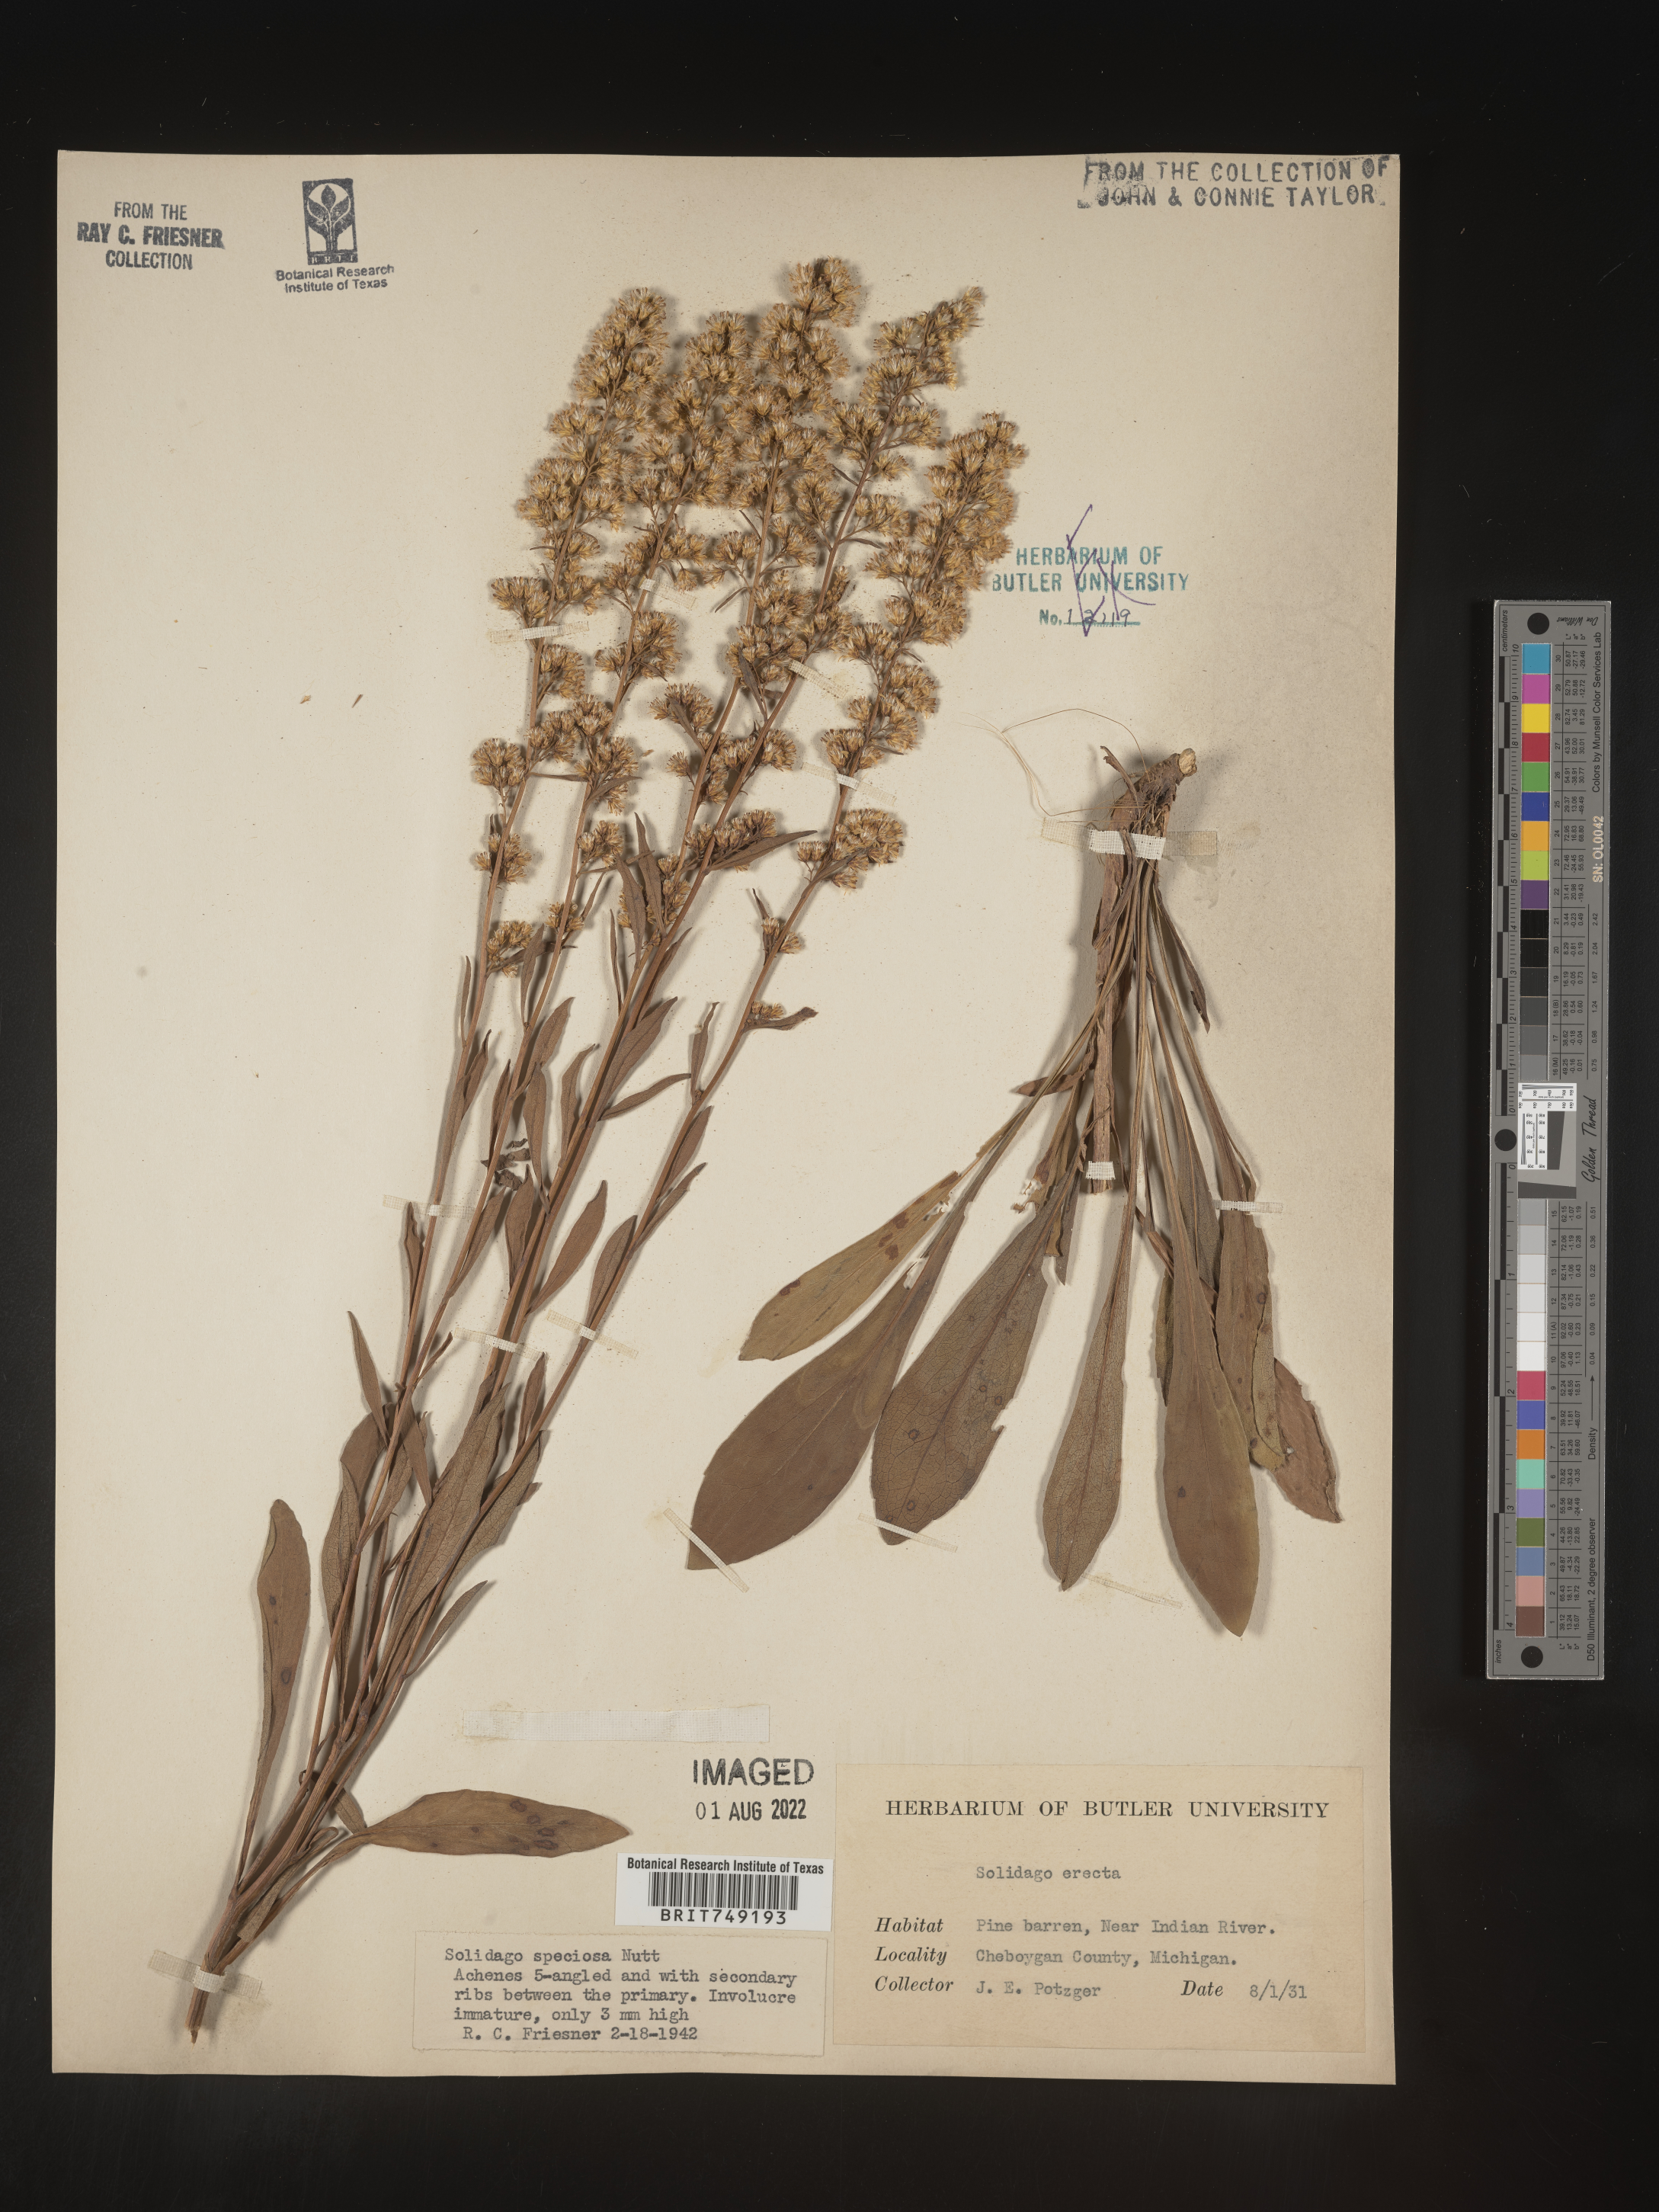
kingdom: Plantae
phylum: Tracheophyta
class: Magnoliopsida
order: Asterales
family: Asteraceae
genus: Solidago
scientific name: Solidago speciosa
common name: Showy goldenrod
